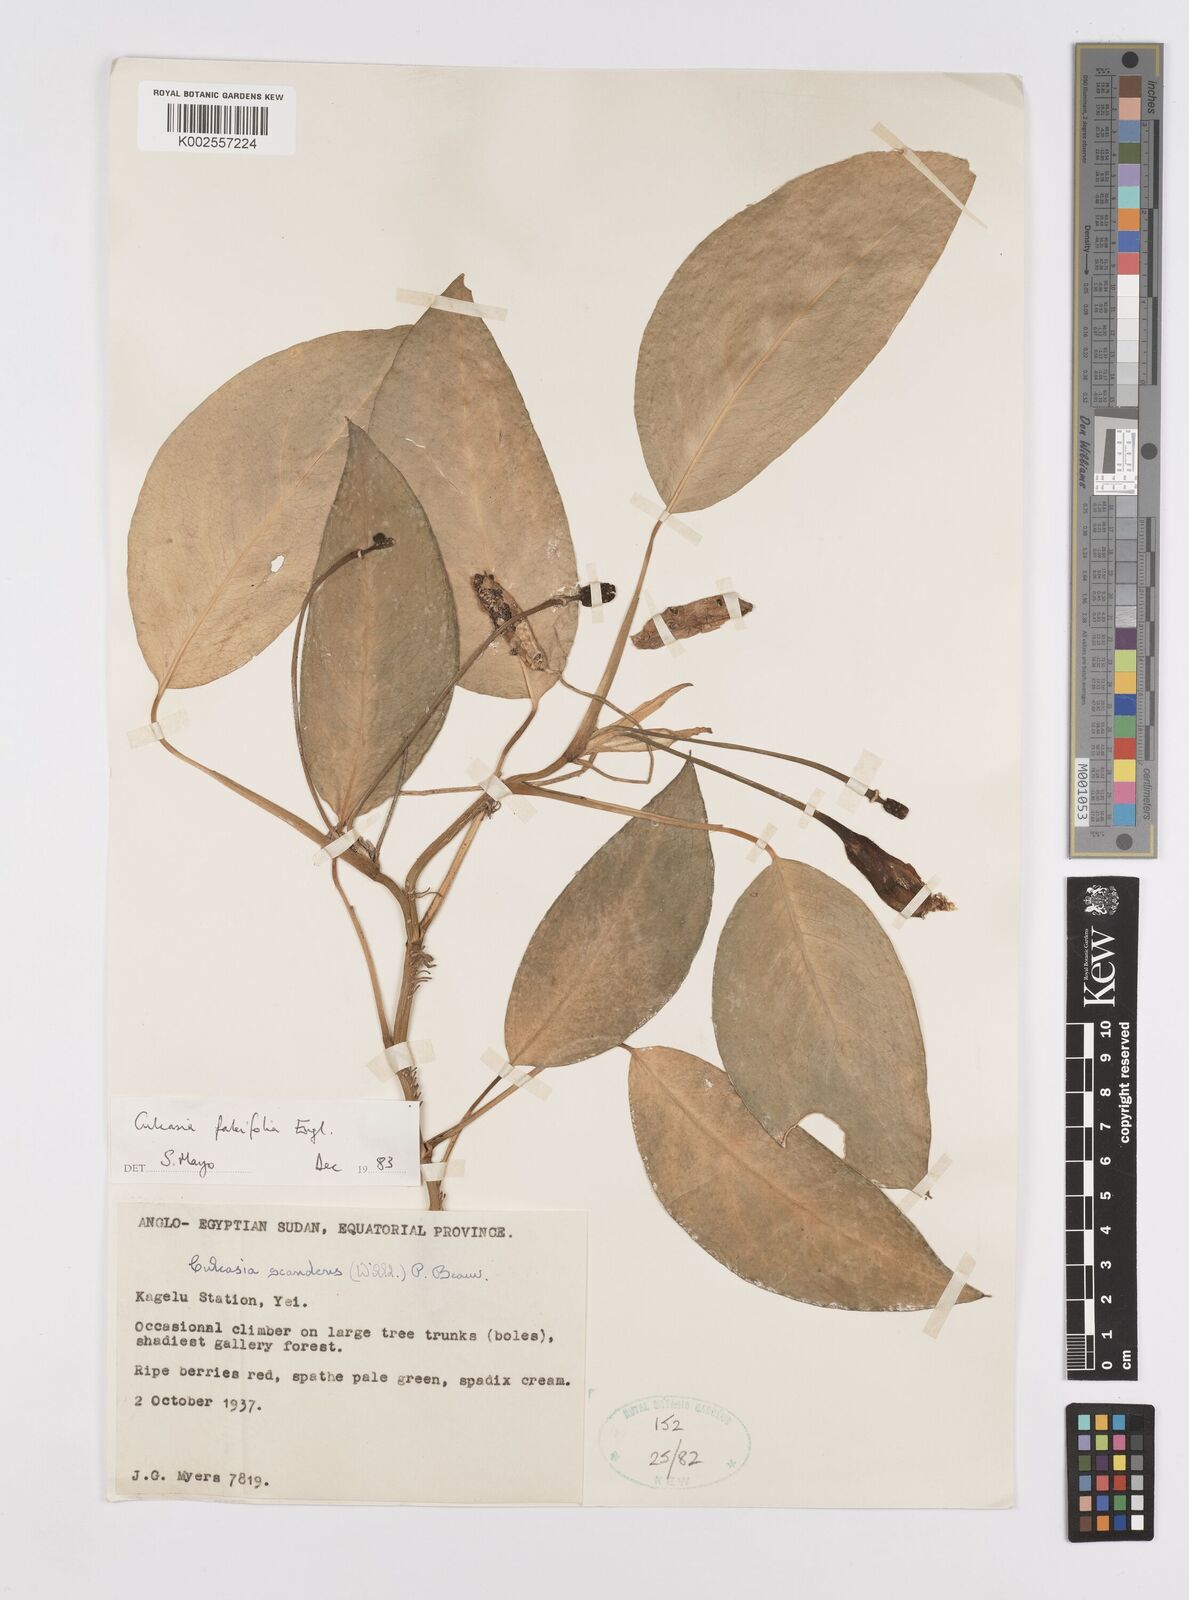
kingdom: Plantae
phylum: Tracheophyta
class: Liliopsida
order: Alismatales
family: Araceae
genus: Culcasia
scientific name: Culcasia falcifolia
